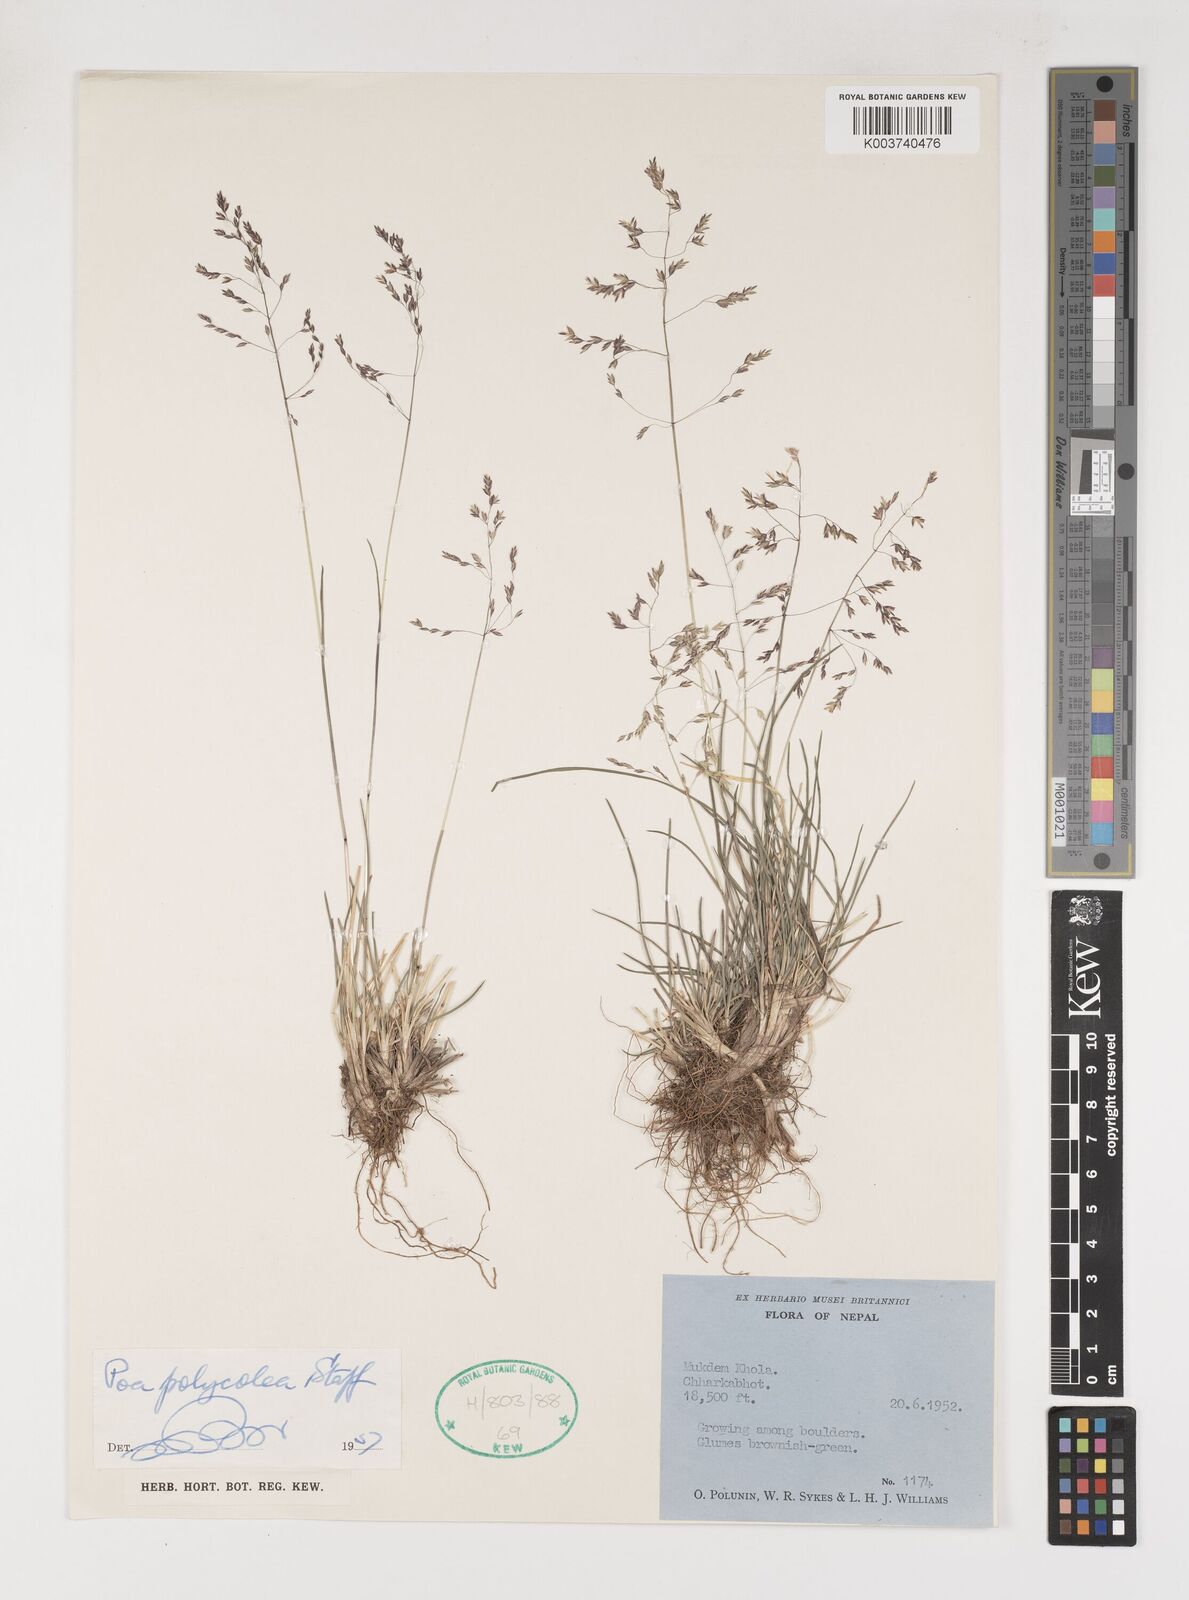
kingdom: Plantae
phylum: Tracheophyta
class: Liliopsida
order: Poales
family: Poaceae
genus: Poa
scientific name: Poa polycolea
